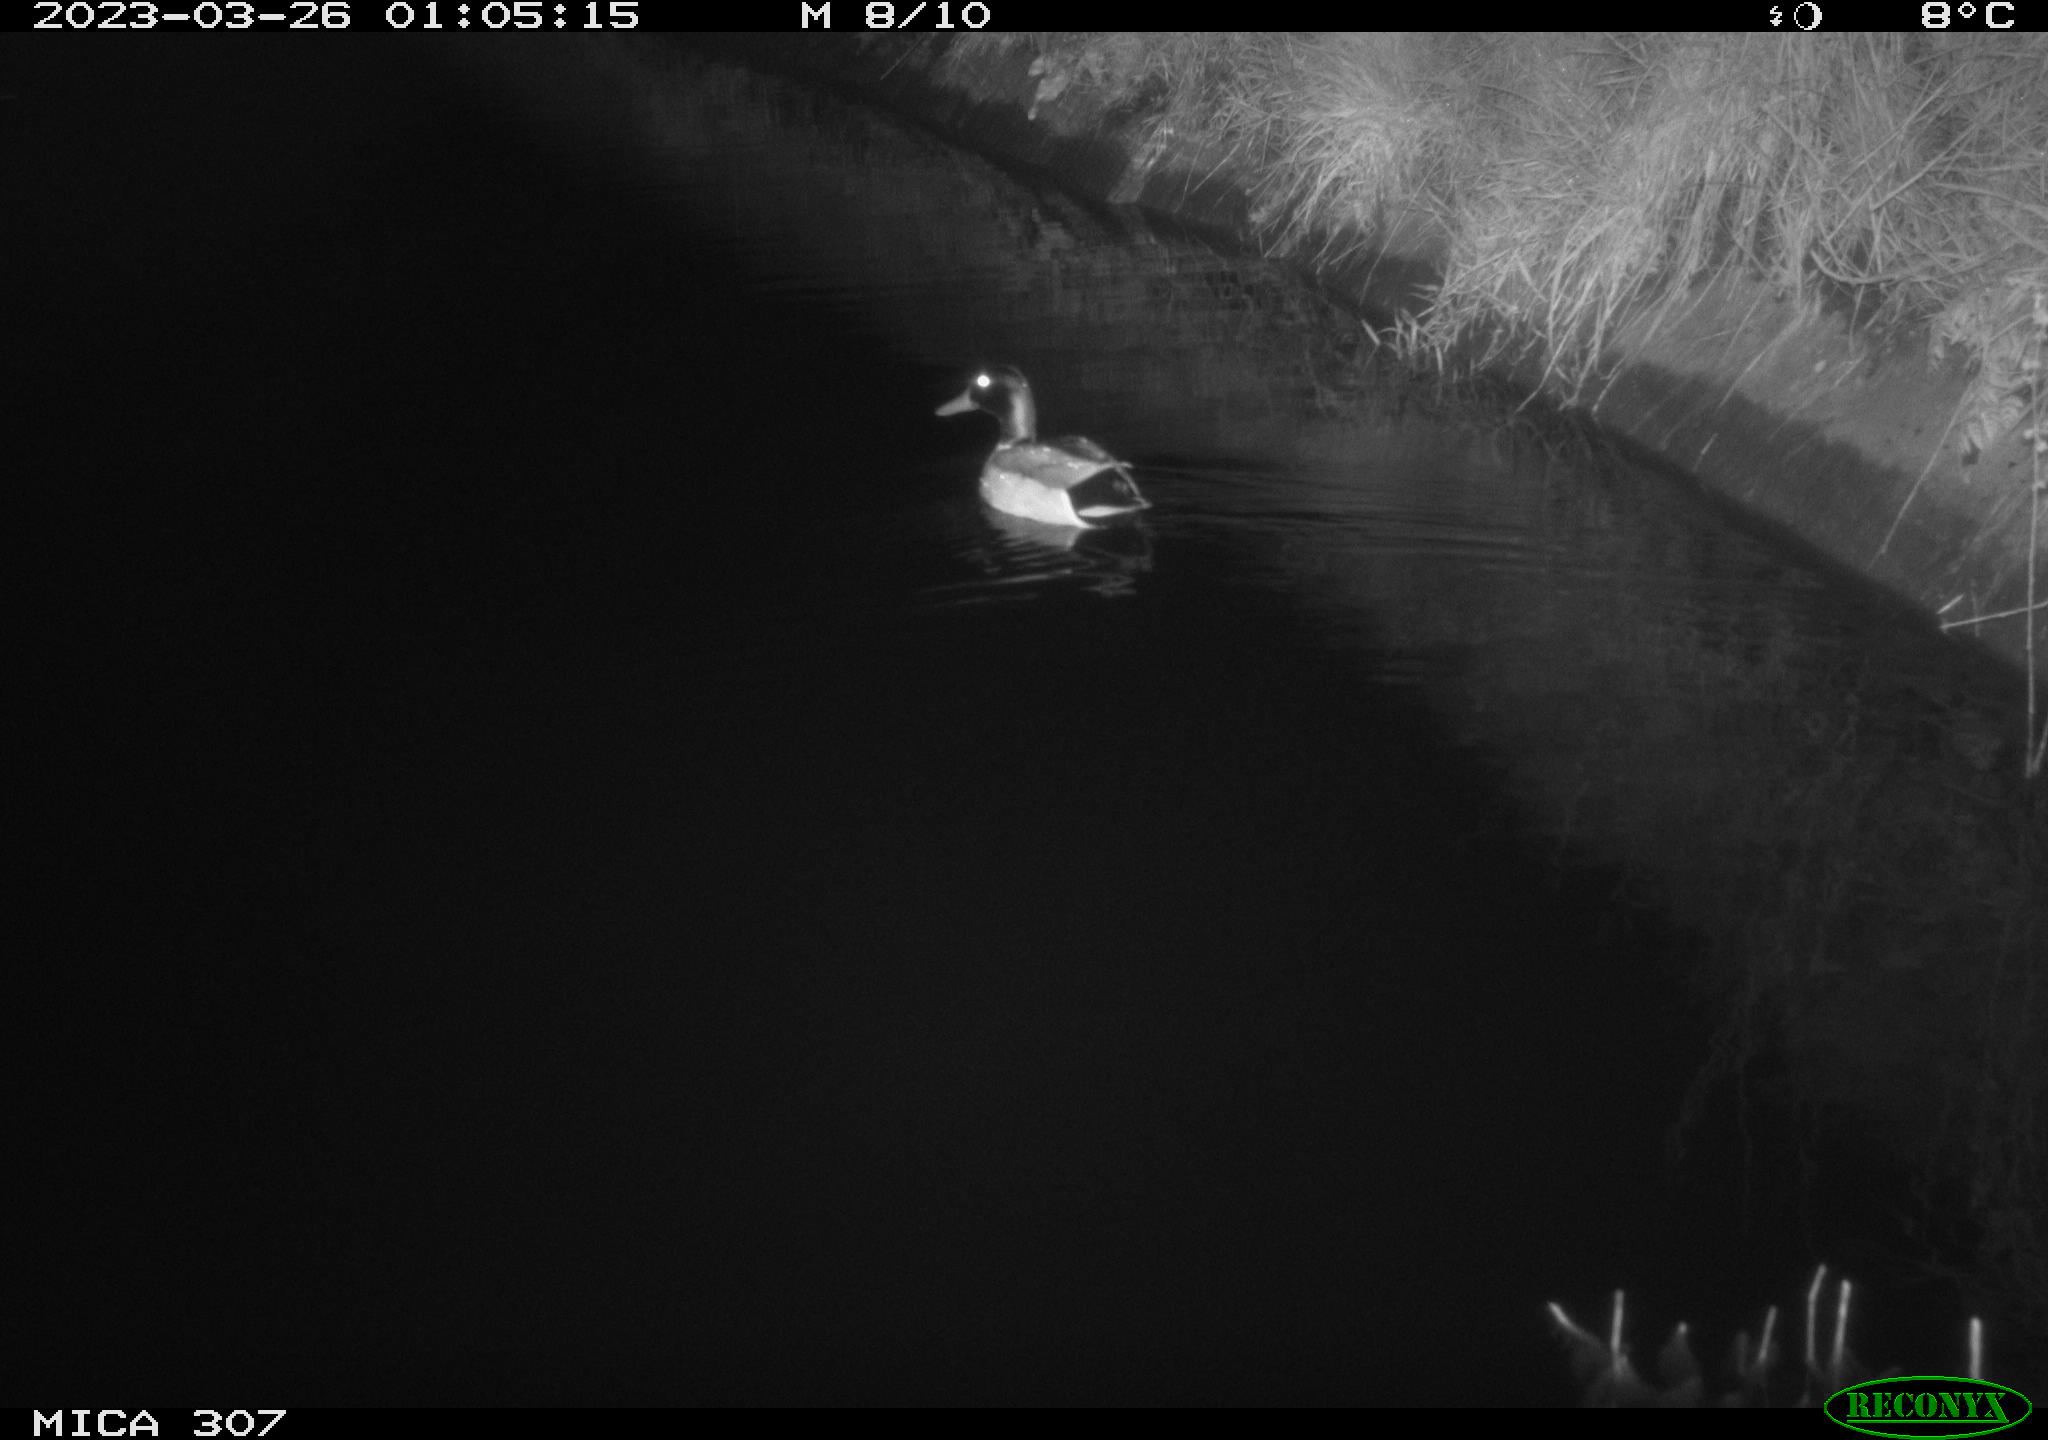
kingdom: Animalia
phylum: Chordata
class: Aves
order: Anseriformes
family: Anatidae
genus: Anas
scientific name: Anas
